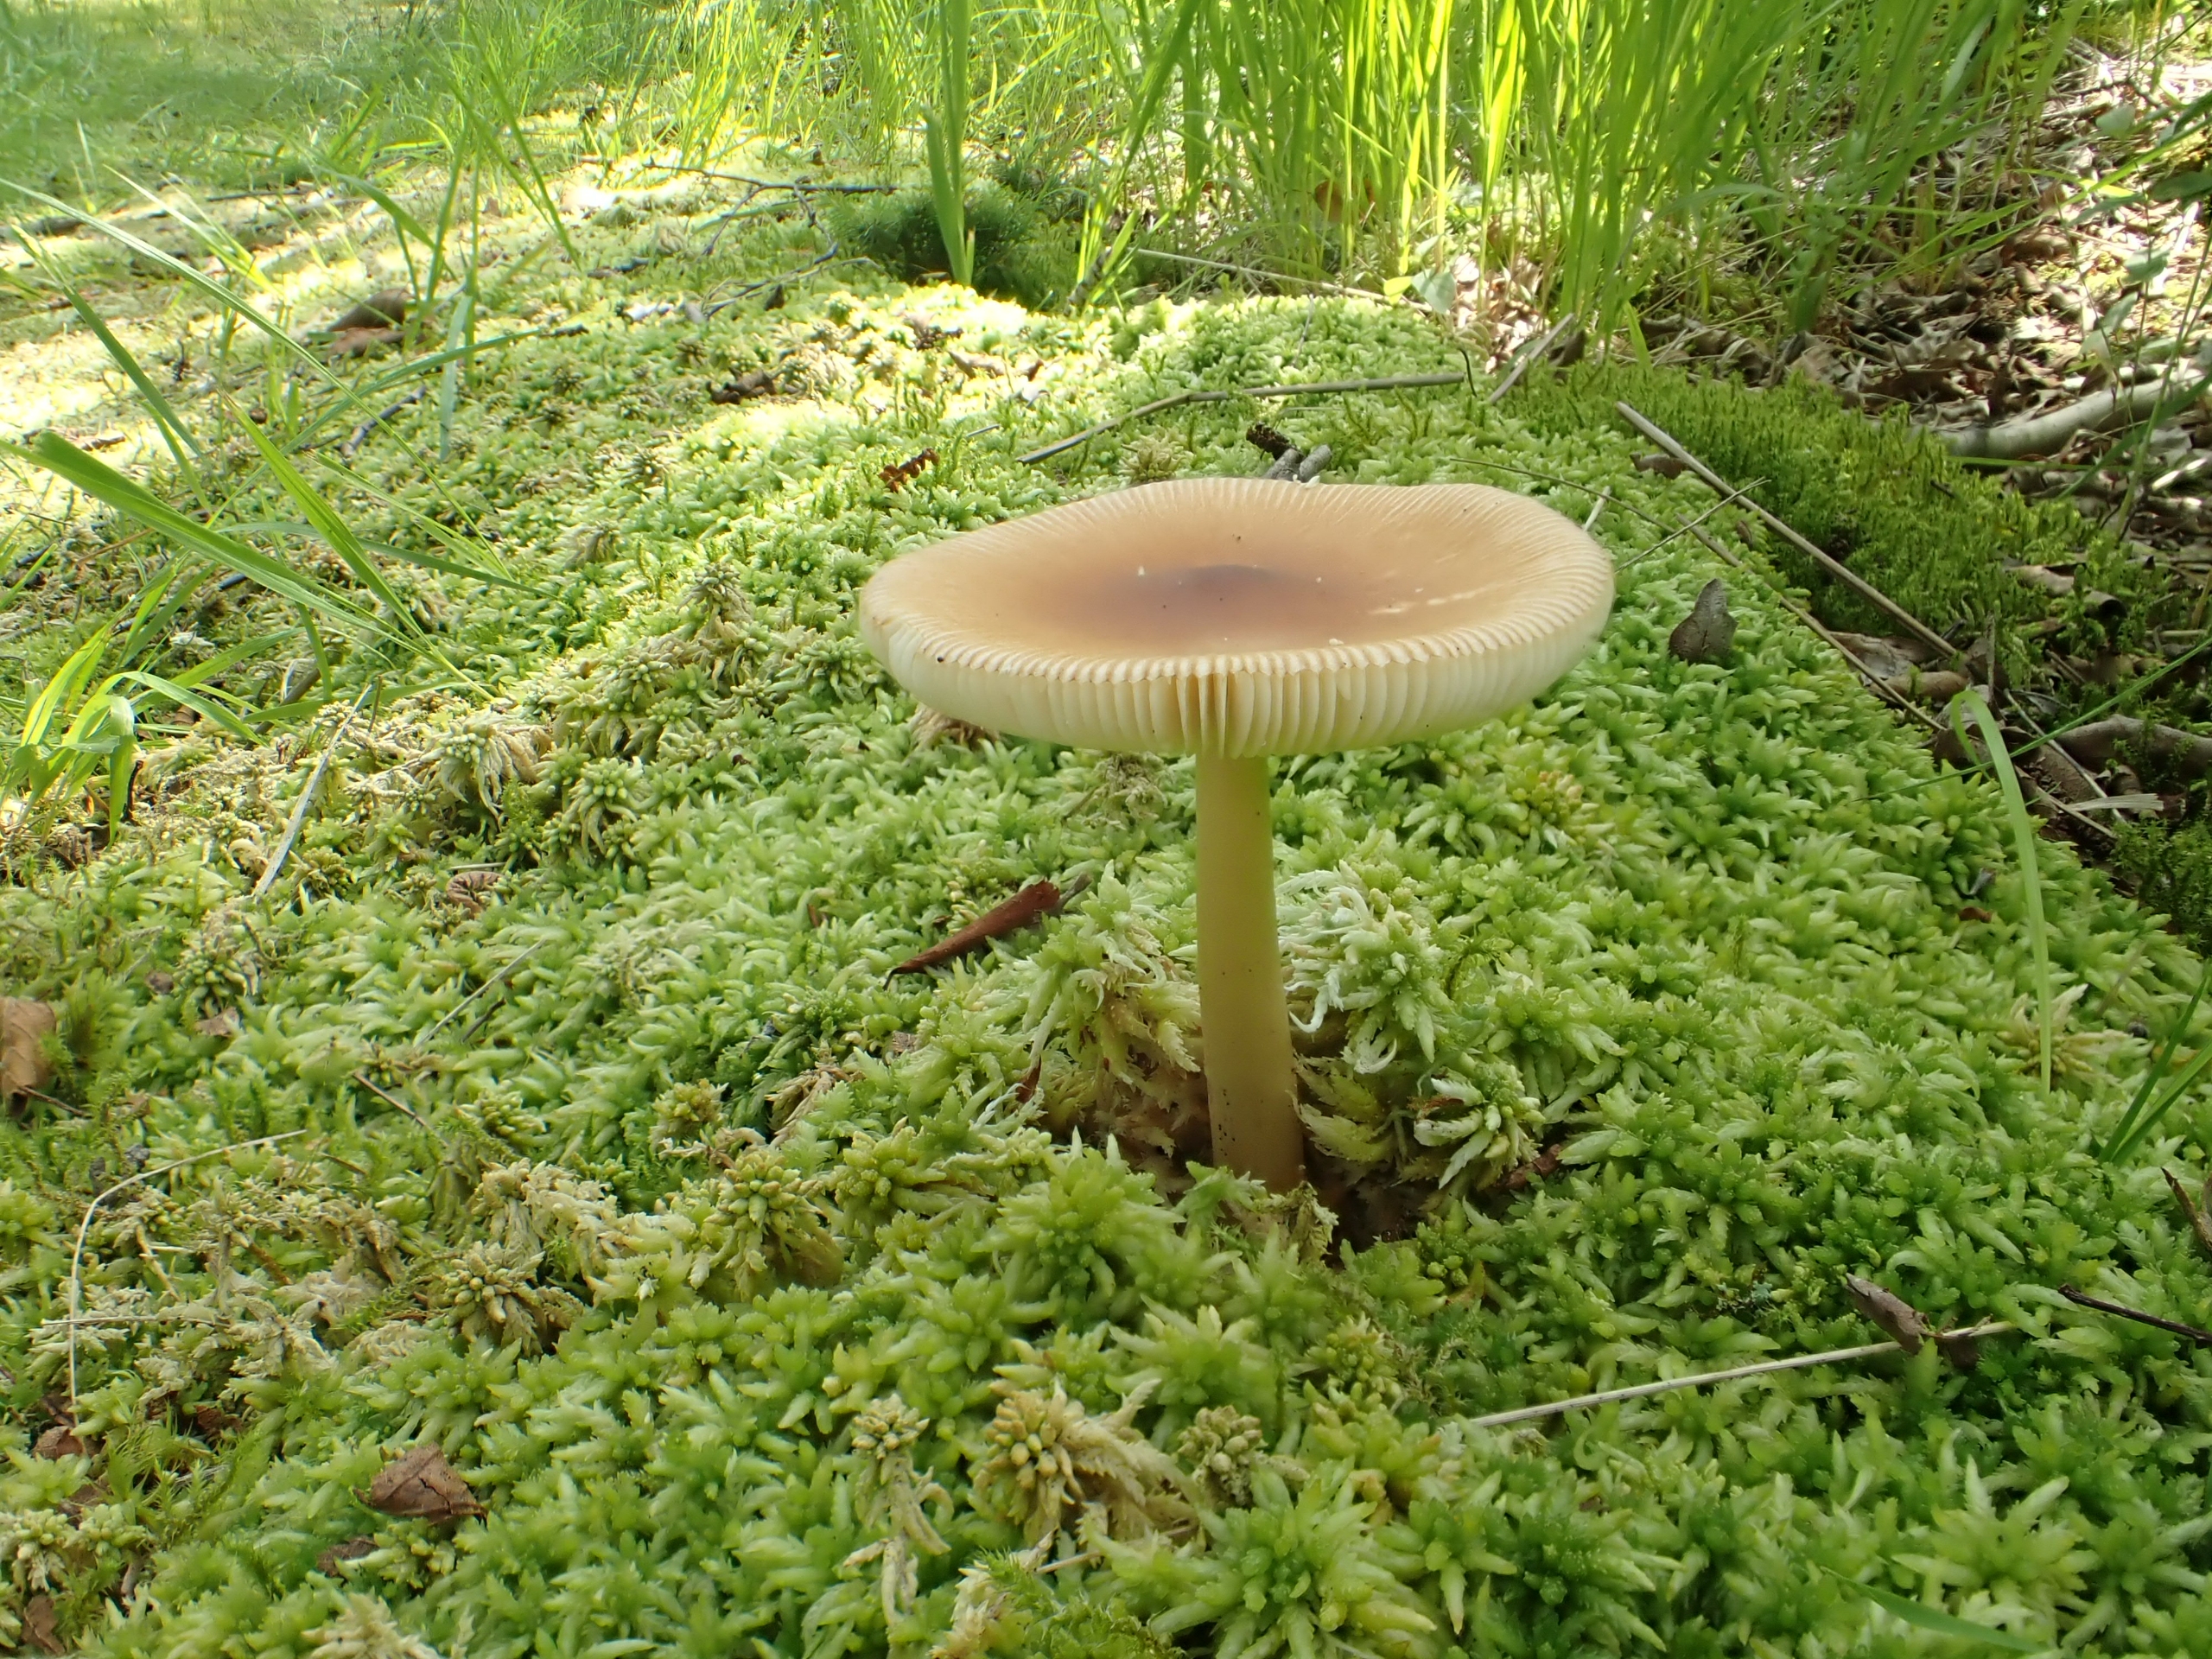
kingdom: Fungi
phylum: Basidiomycota
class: Agaricomycetes
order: Agaricales
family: Amanitaceae
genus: Amanita
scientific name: Amanita fulva
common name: Brun kam-fluesvamp
